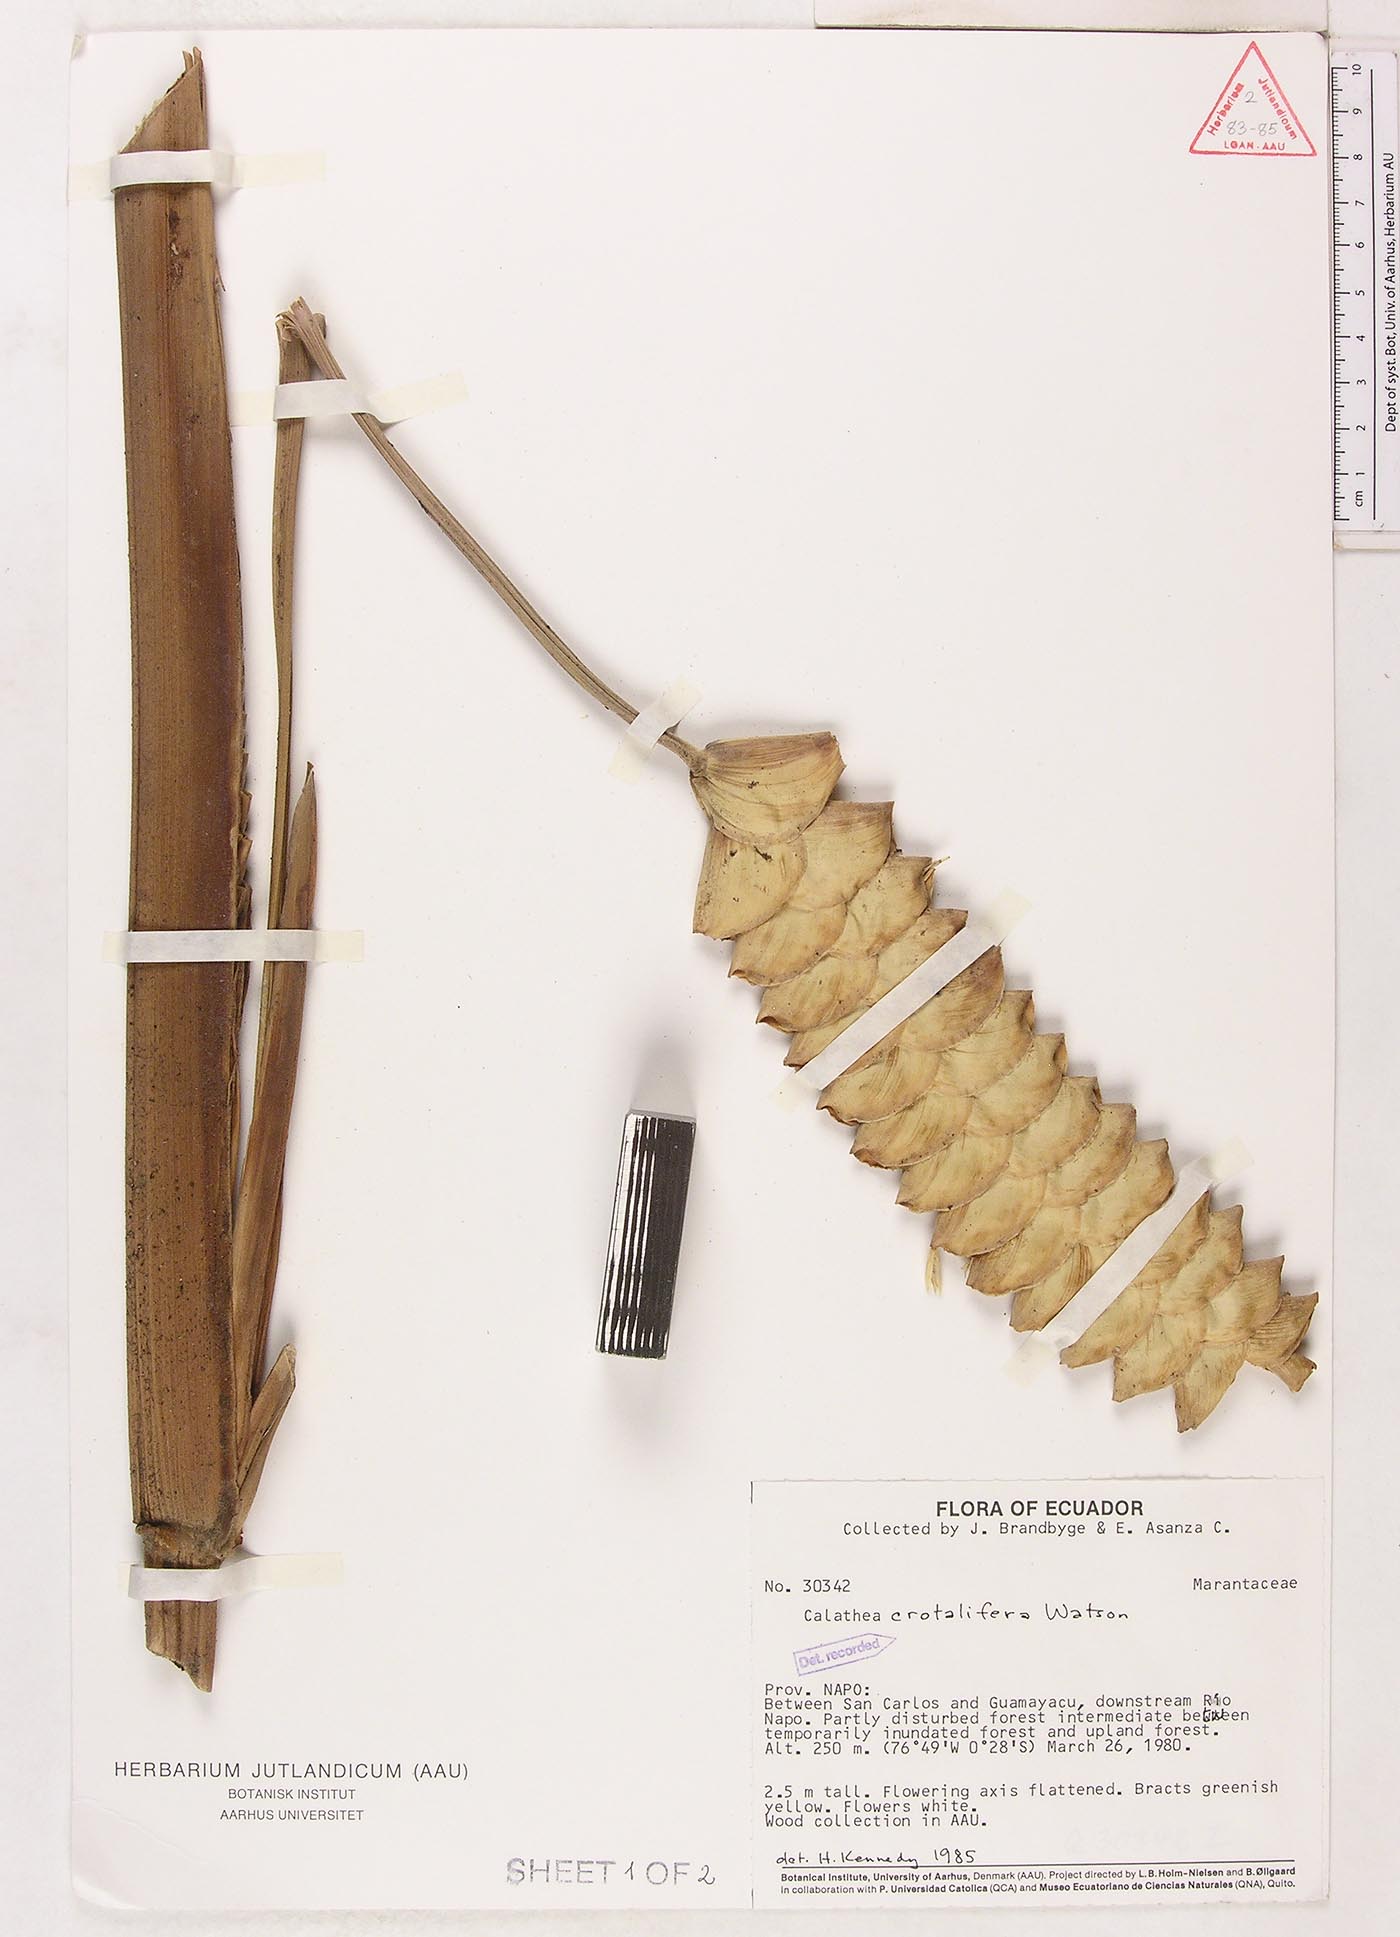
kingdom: Plantae
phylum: Tracheophyta
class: Liliopsida
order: Zingiberales
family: Marantaceae
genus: Calathea
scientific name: Calathea crotalifera
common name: Rattlesnake plant
